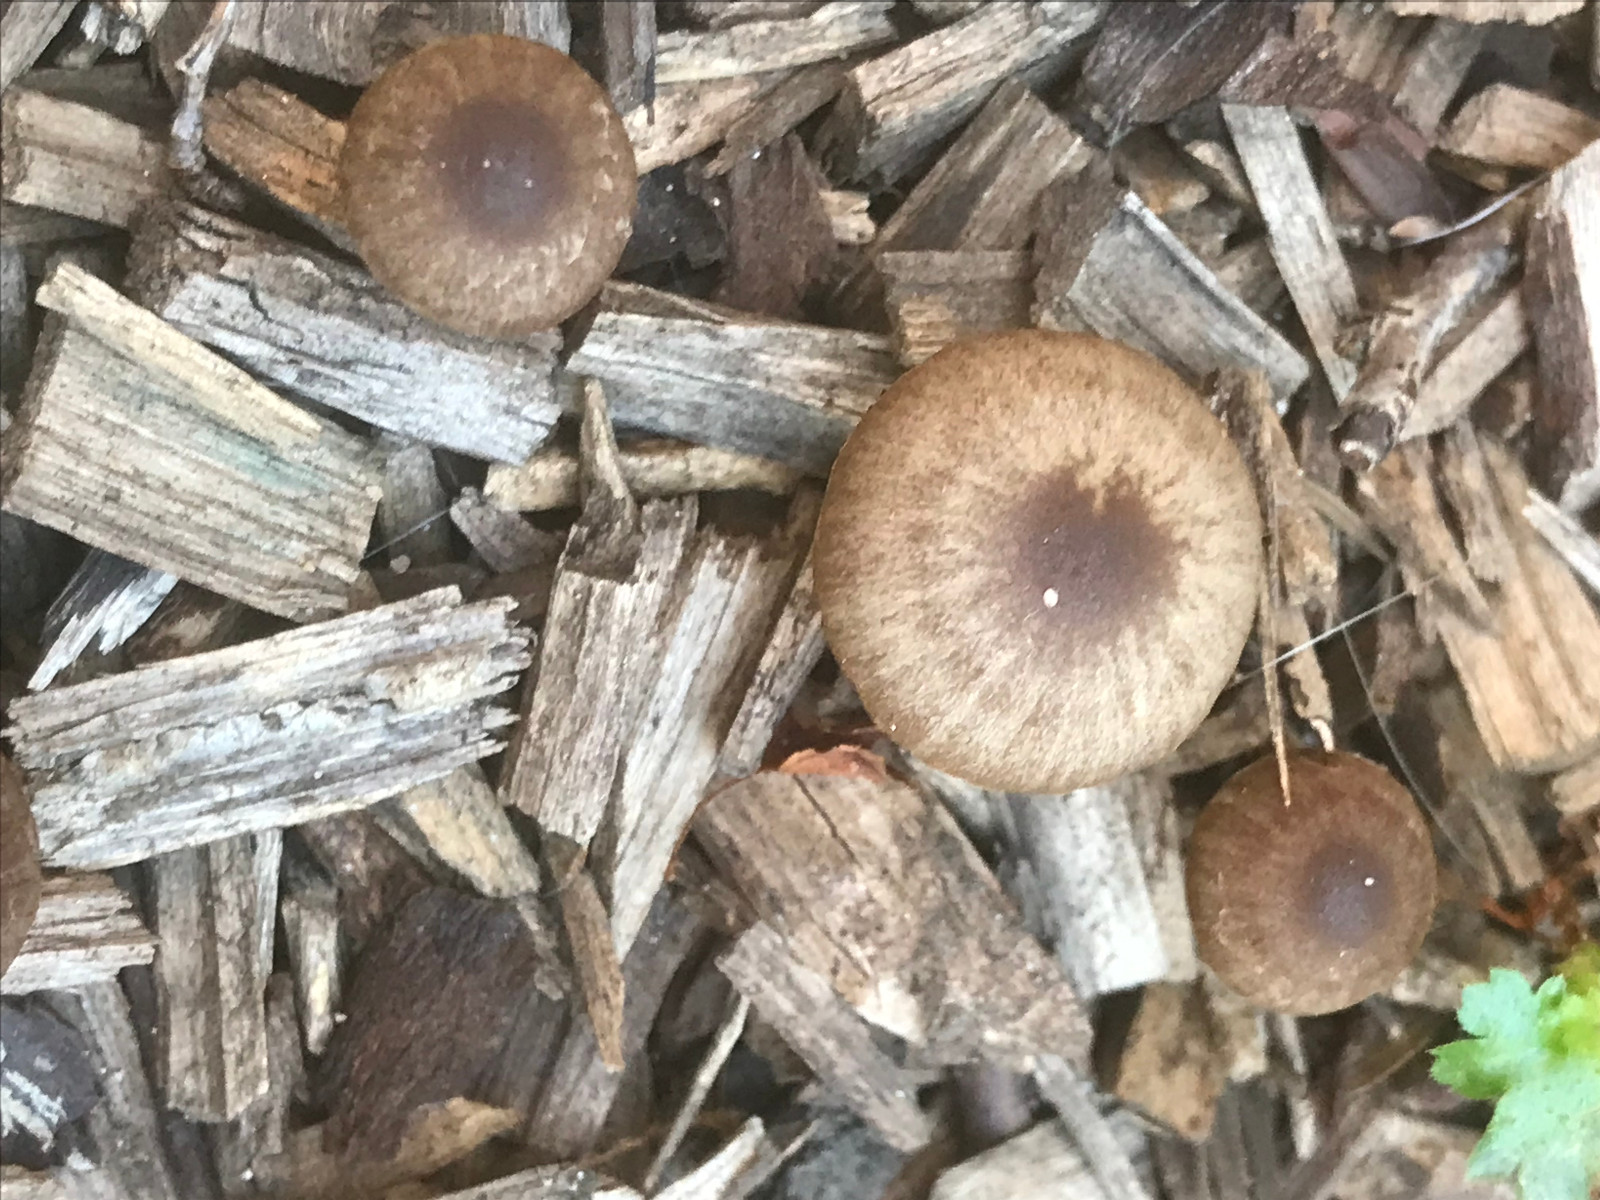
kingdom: Fungi
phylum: Basidiomycota
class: Agaricomycetes
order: Agaricales
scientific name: Agaricales
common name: champignonordenen
